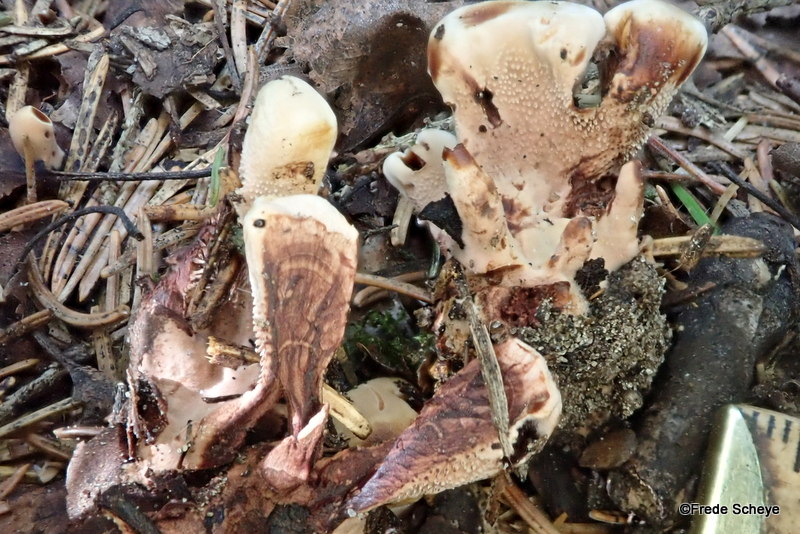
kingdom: Fungi
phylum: Basidiomycota
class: Agaricomycetes
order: Thelephorales
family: Bankeraceae
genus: Hydnellum
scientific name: Hydnellum concrescens
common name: bæltet korkpigsvamp
